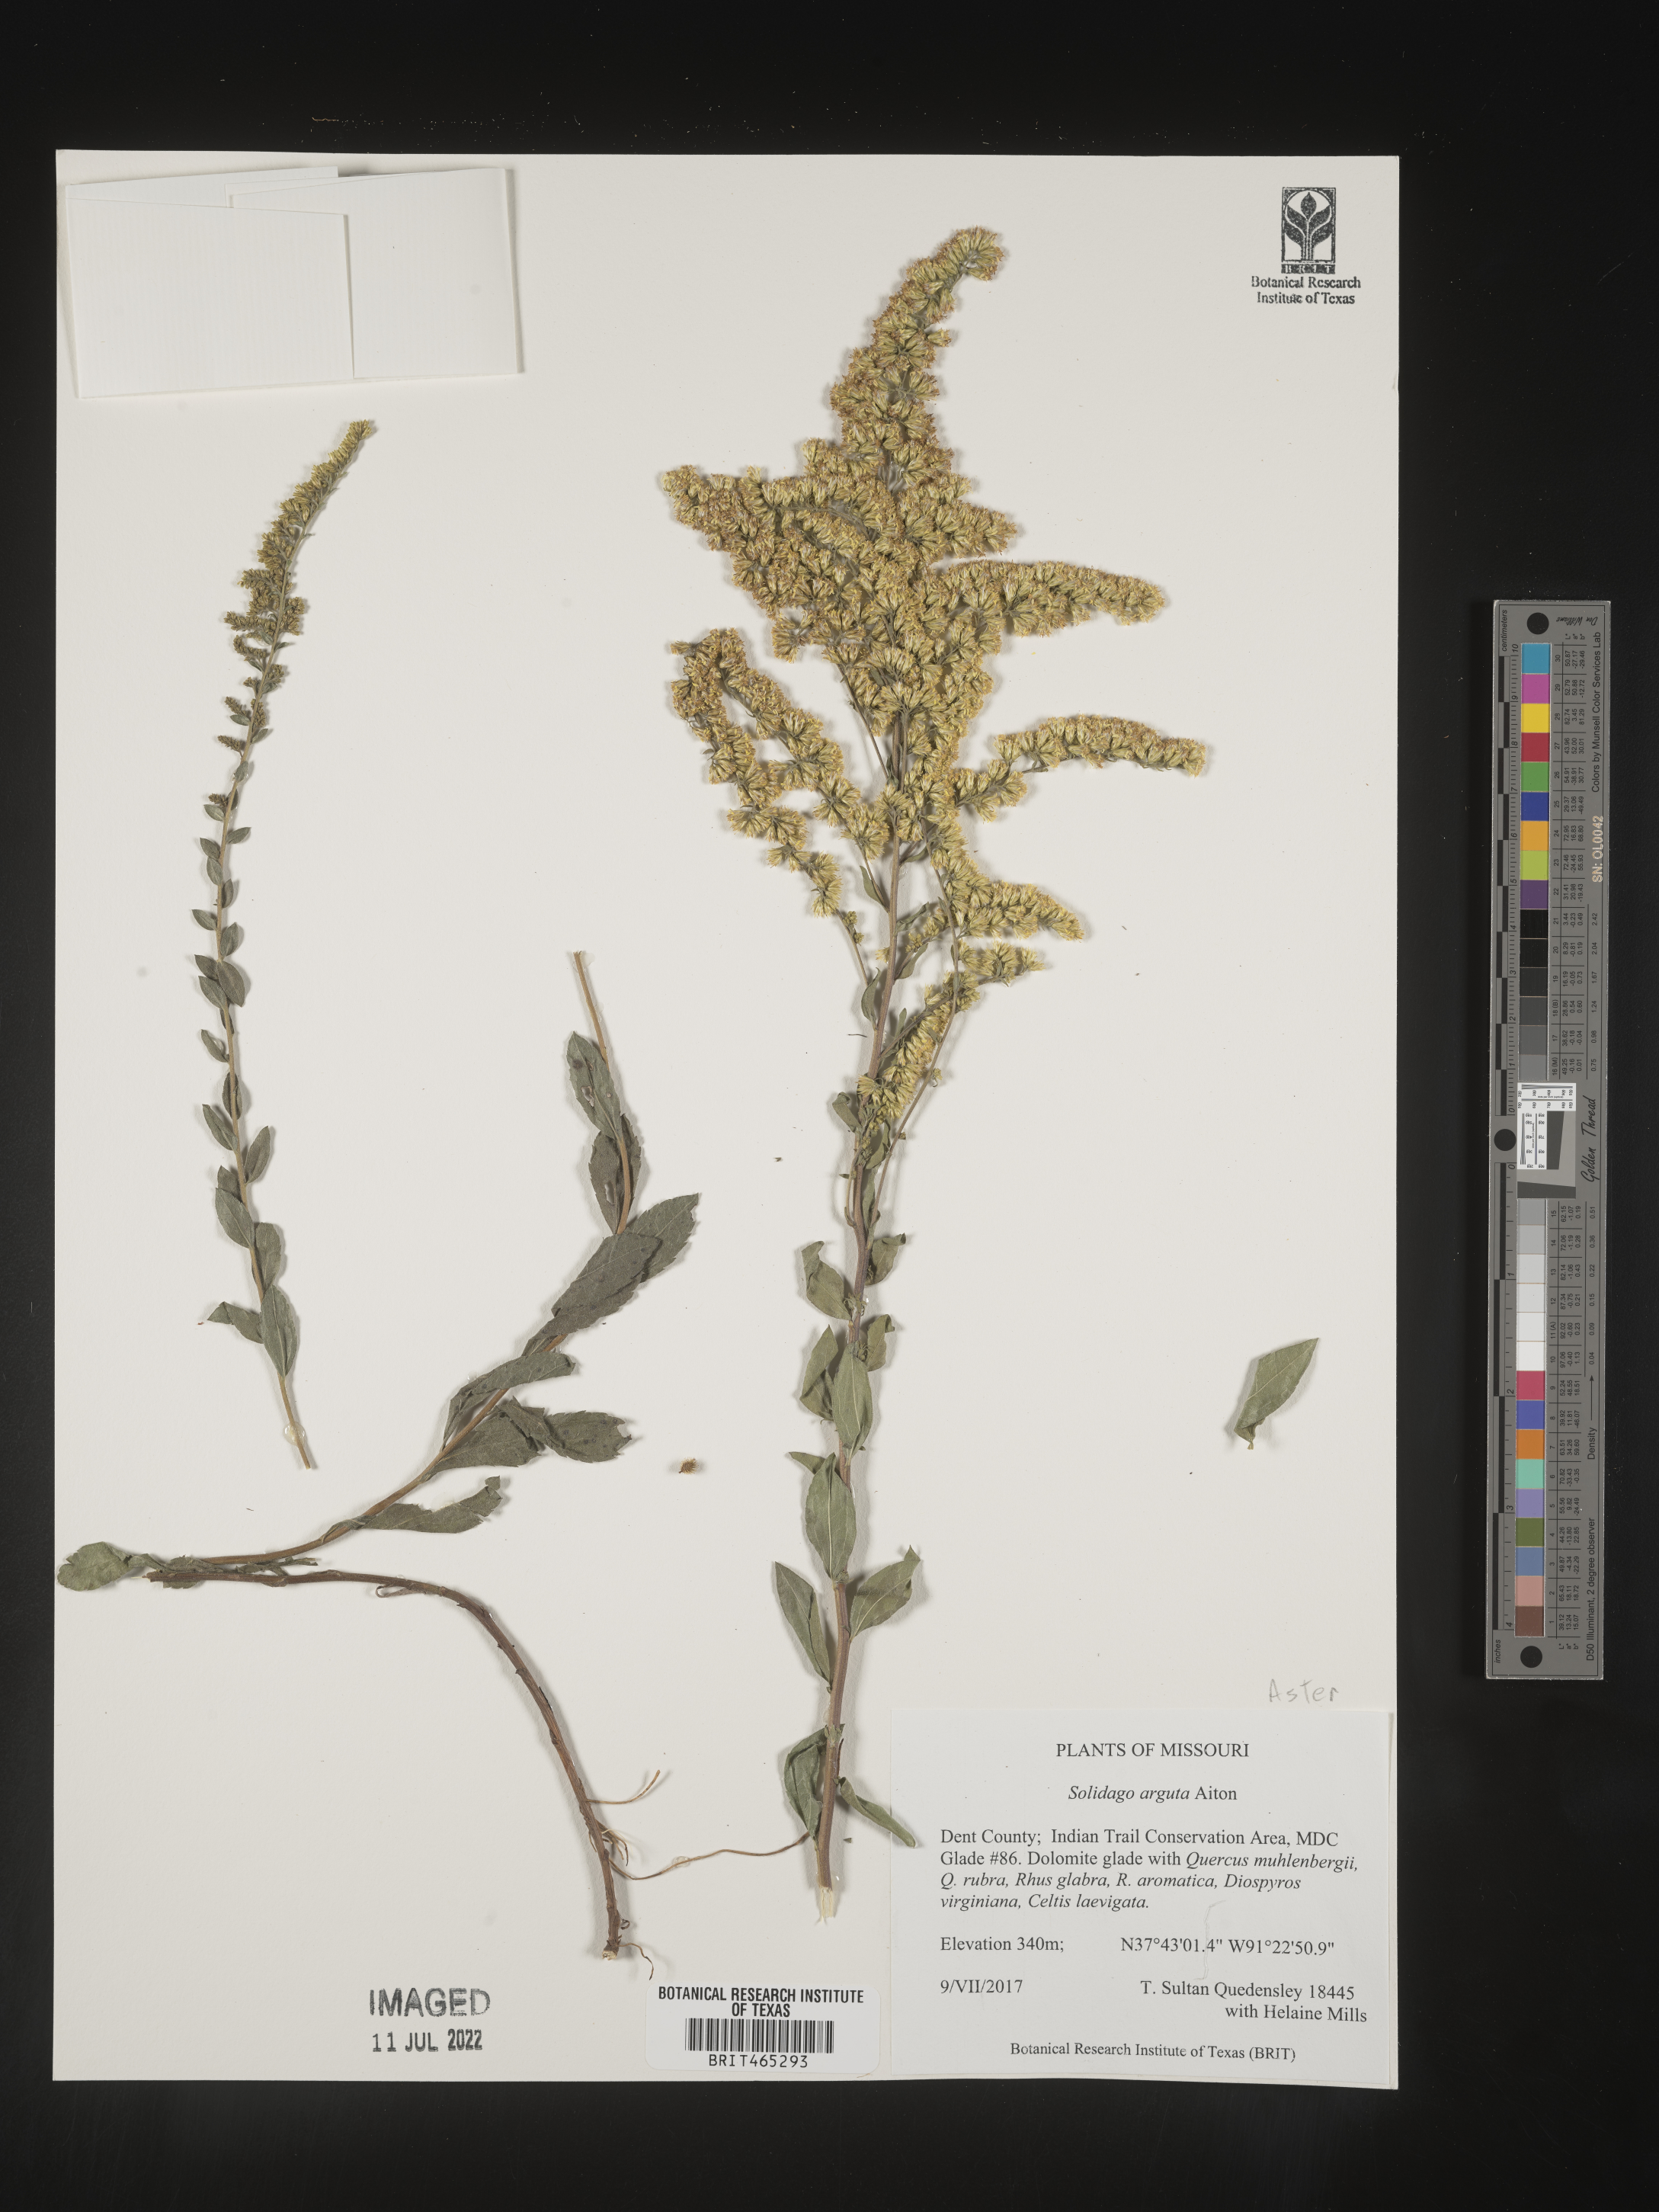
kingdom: Plantae
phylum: Tracheophyta
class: Magnoliopsida
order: Asterales
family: Asteraceae
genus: Solidago
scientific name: Solidago arguta
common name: Atlantic goldenrod
